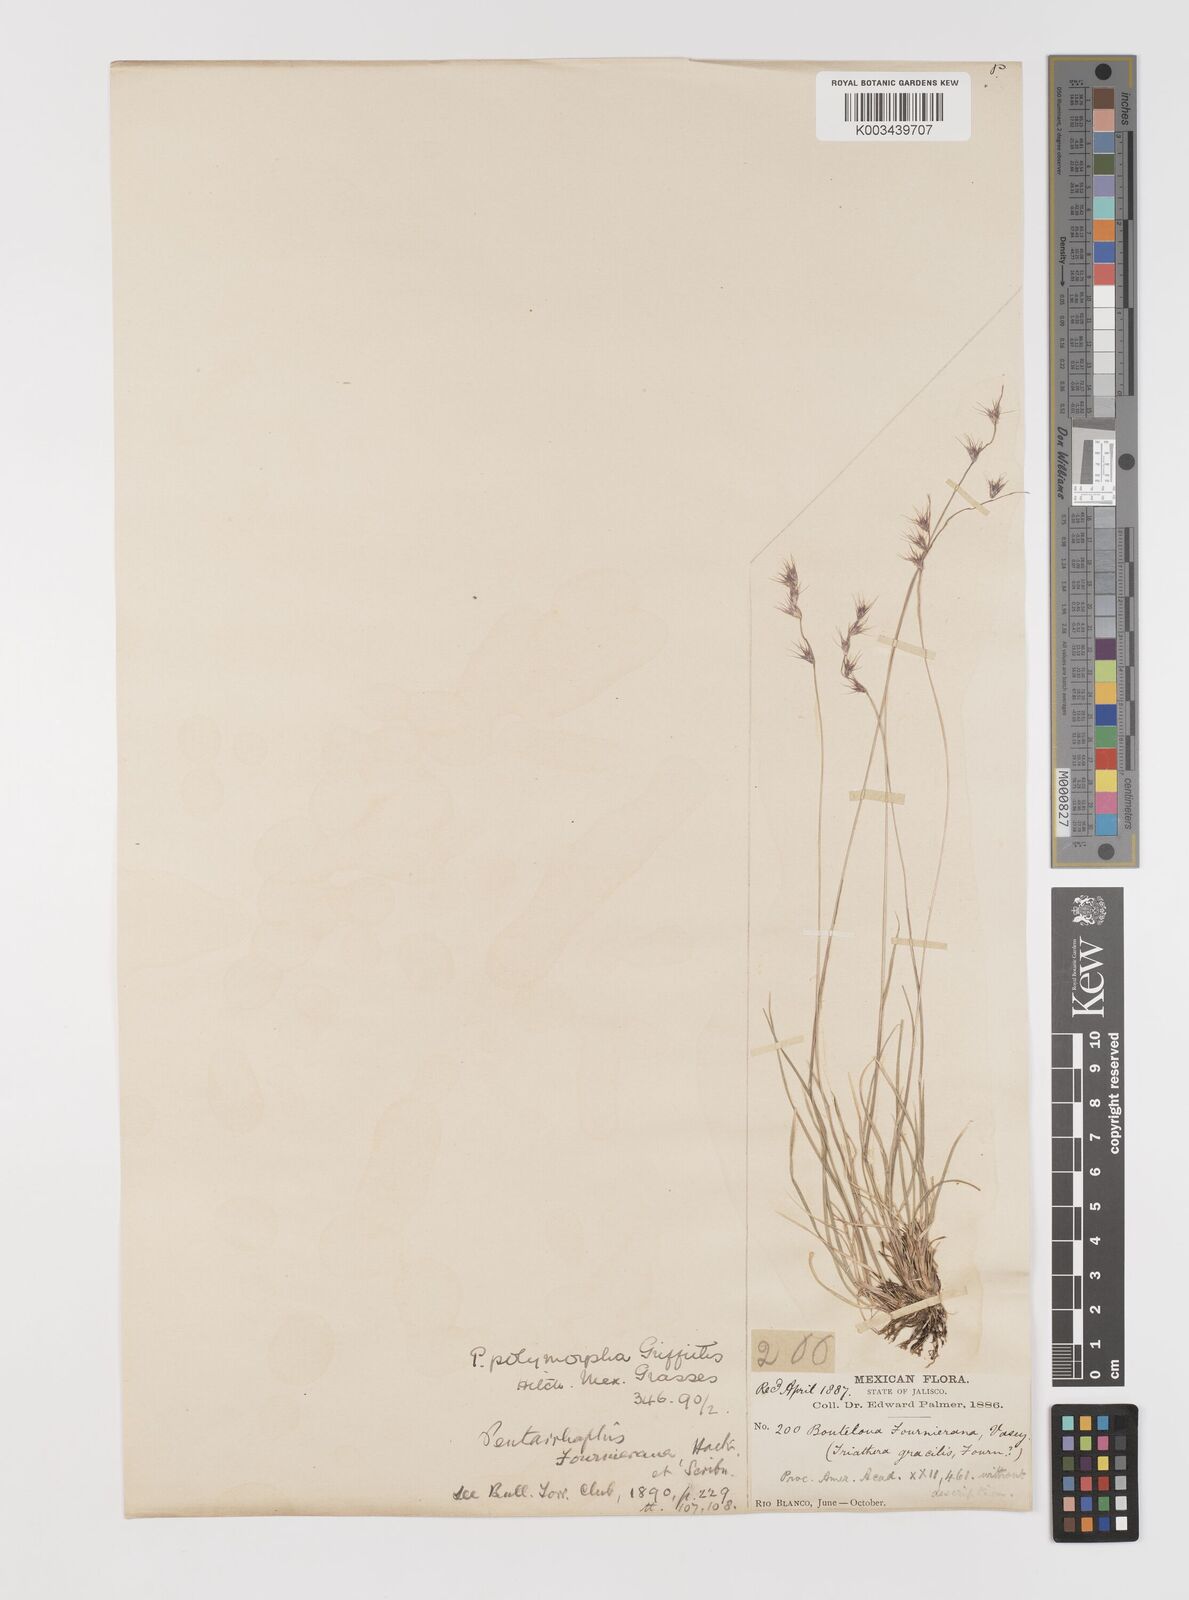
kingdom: Plantae
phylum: Tracheophyta
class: Liliopsida
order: Poales
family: Poaceae
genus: Bouteloua
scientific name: Bouteloua polymorpha
